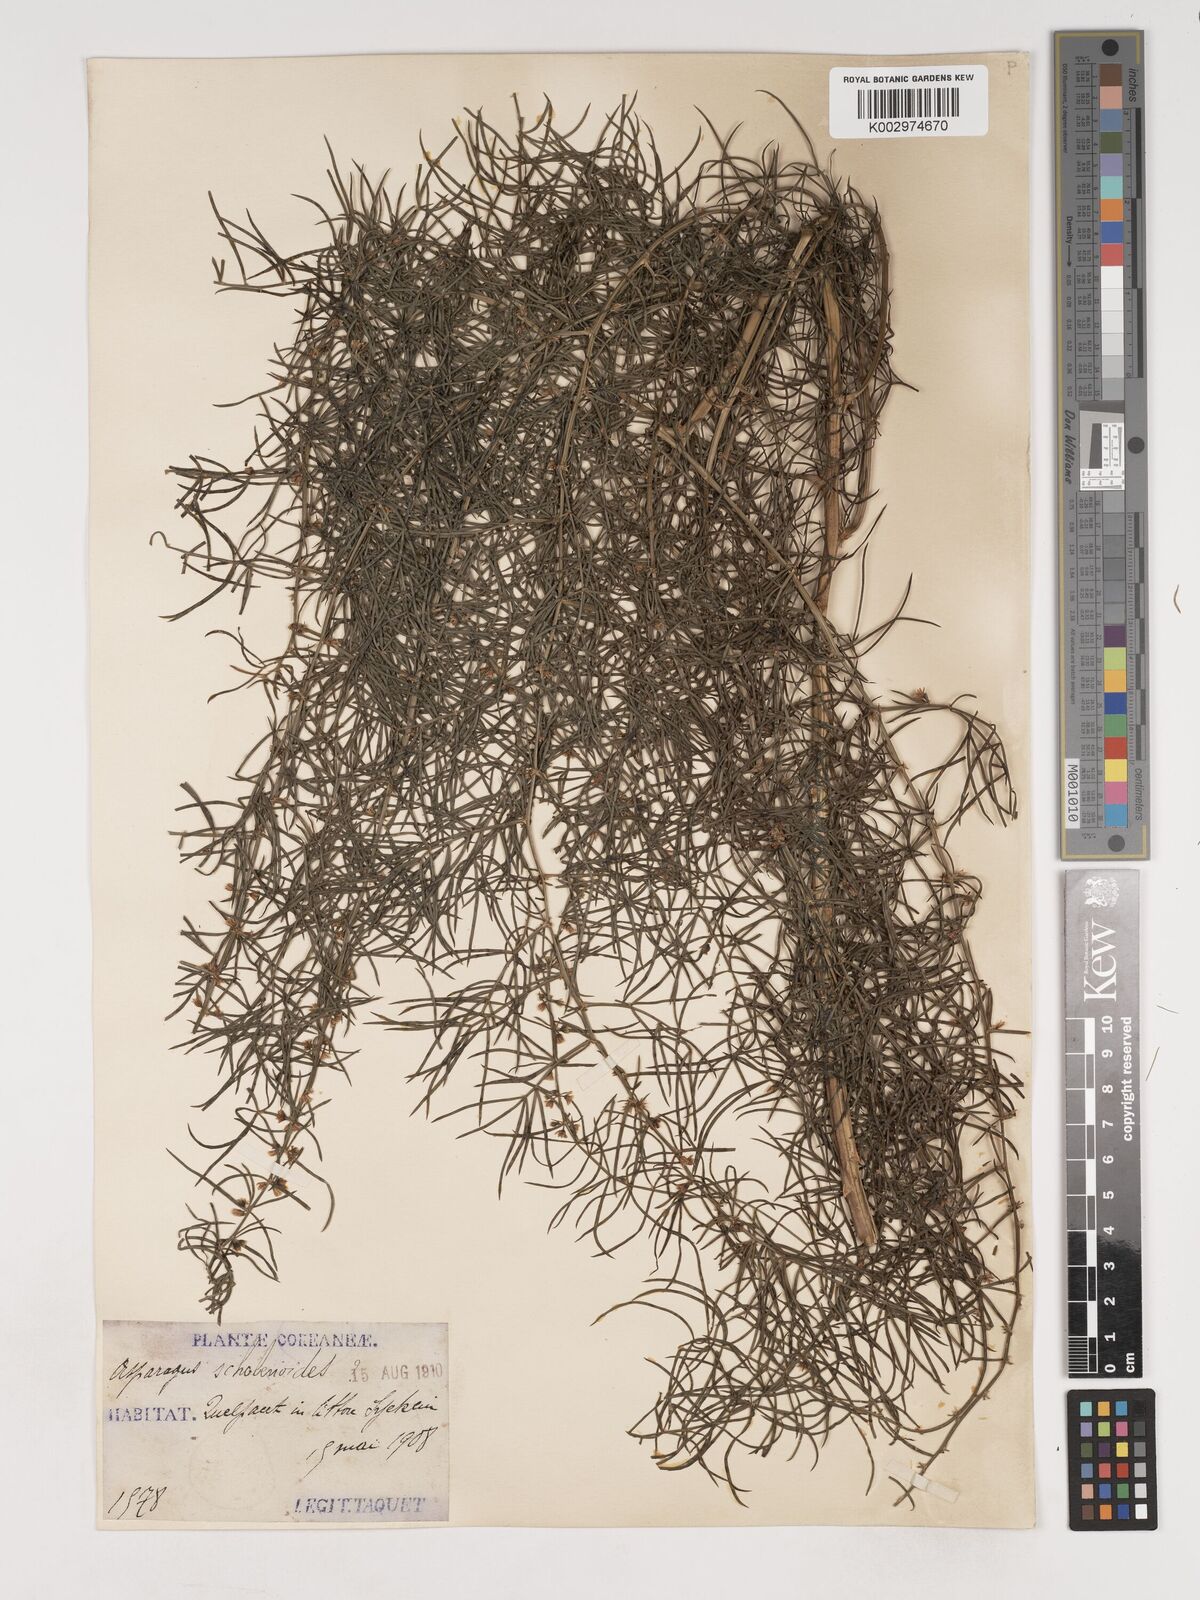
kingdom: Plantae
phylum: Tracheophyta
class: Liliopsida
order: Asparagales
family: Asparagaceae
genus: Asparagus
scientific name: Asparagus schoberioides
